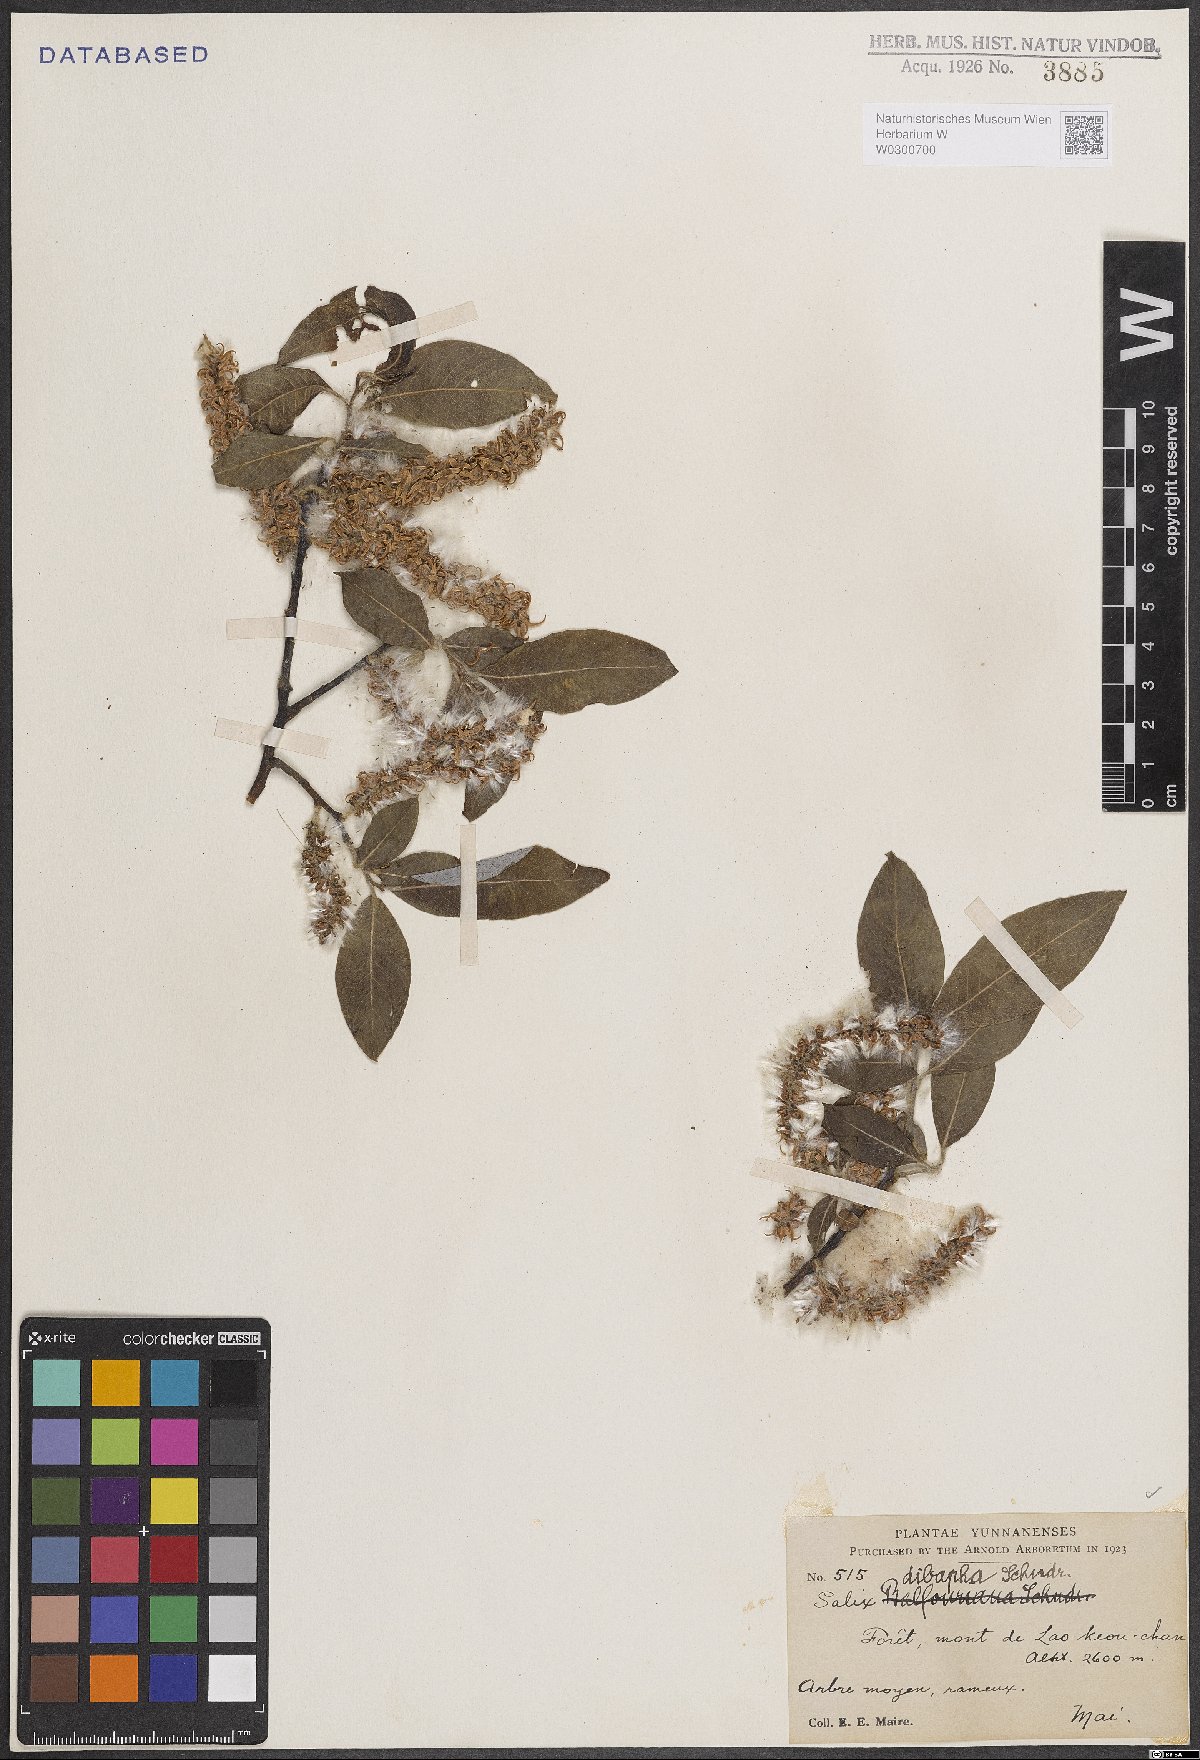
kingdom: Plantae
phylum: Tracheophyta
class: Magnoliopsida
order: Malpighiales
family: Salicaceae
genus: Salix
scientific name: Salix dibapha
